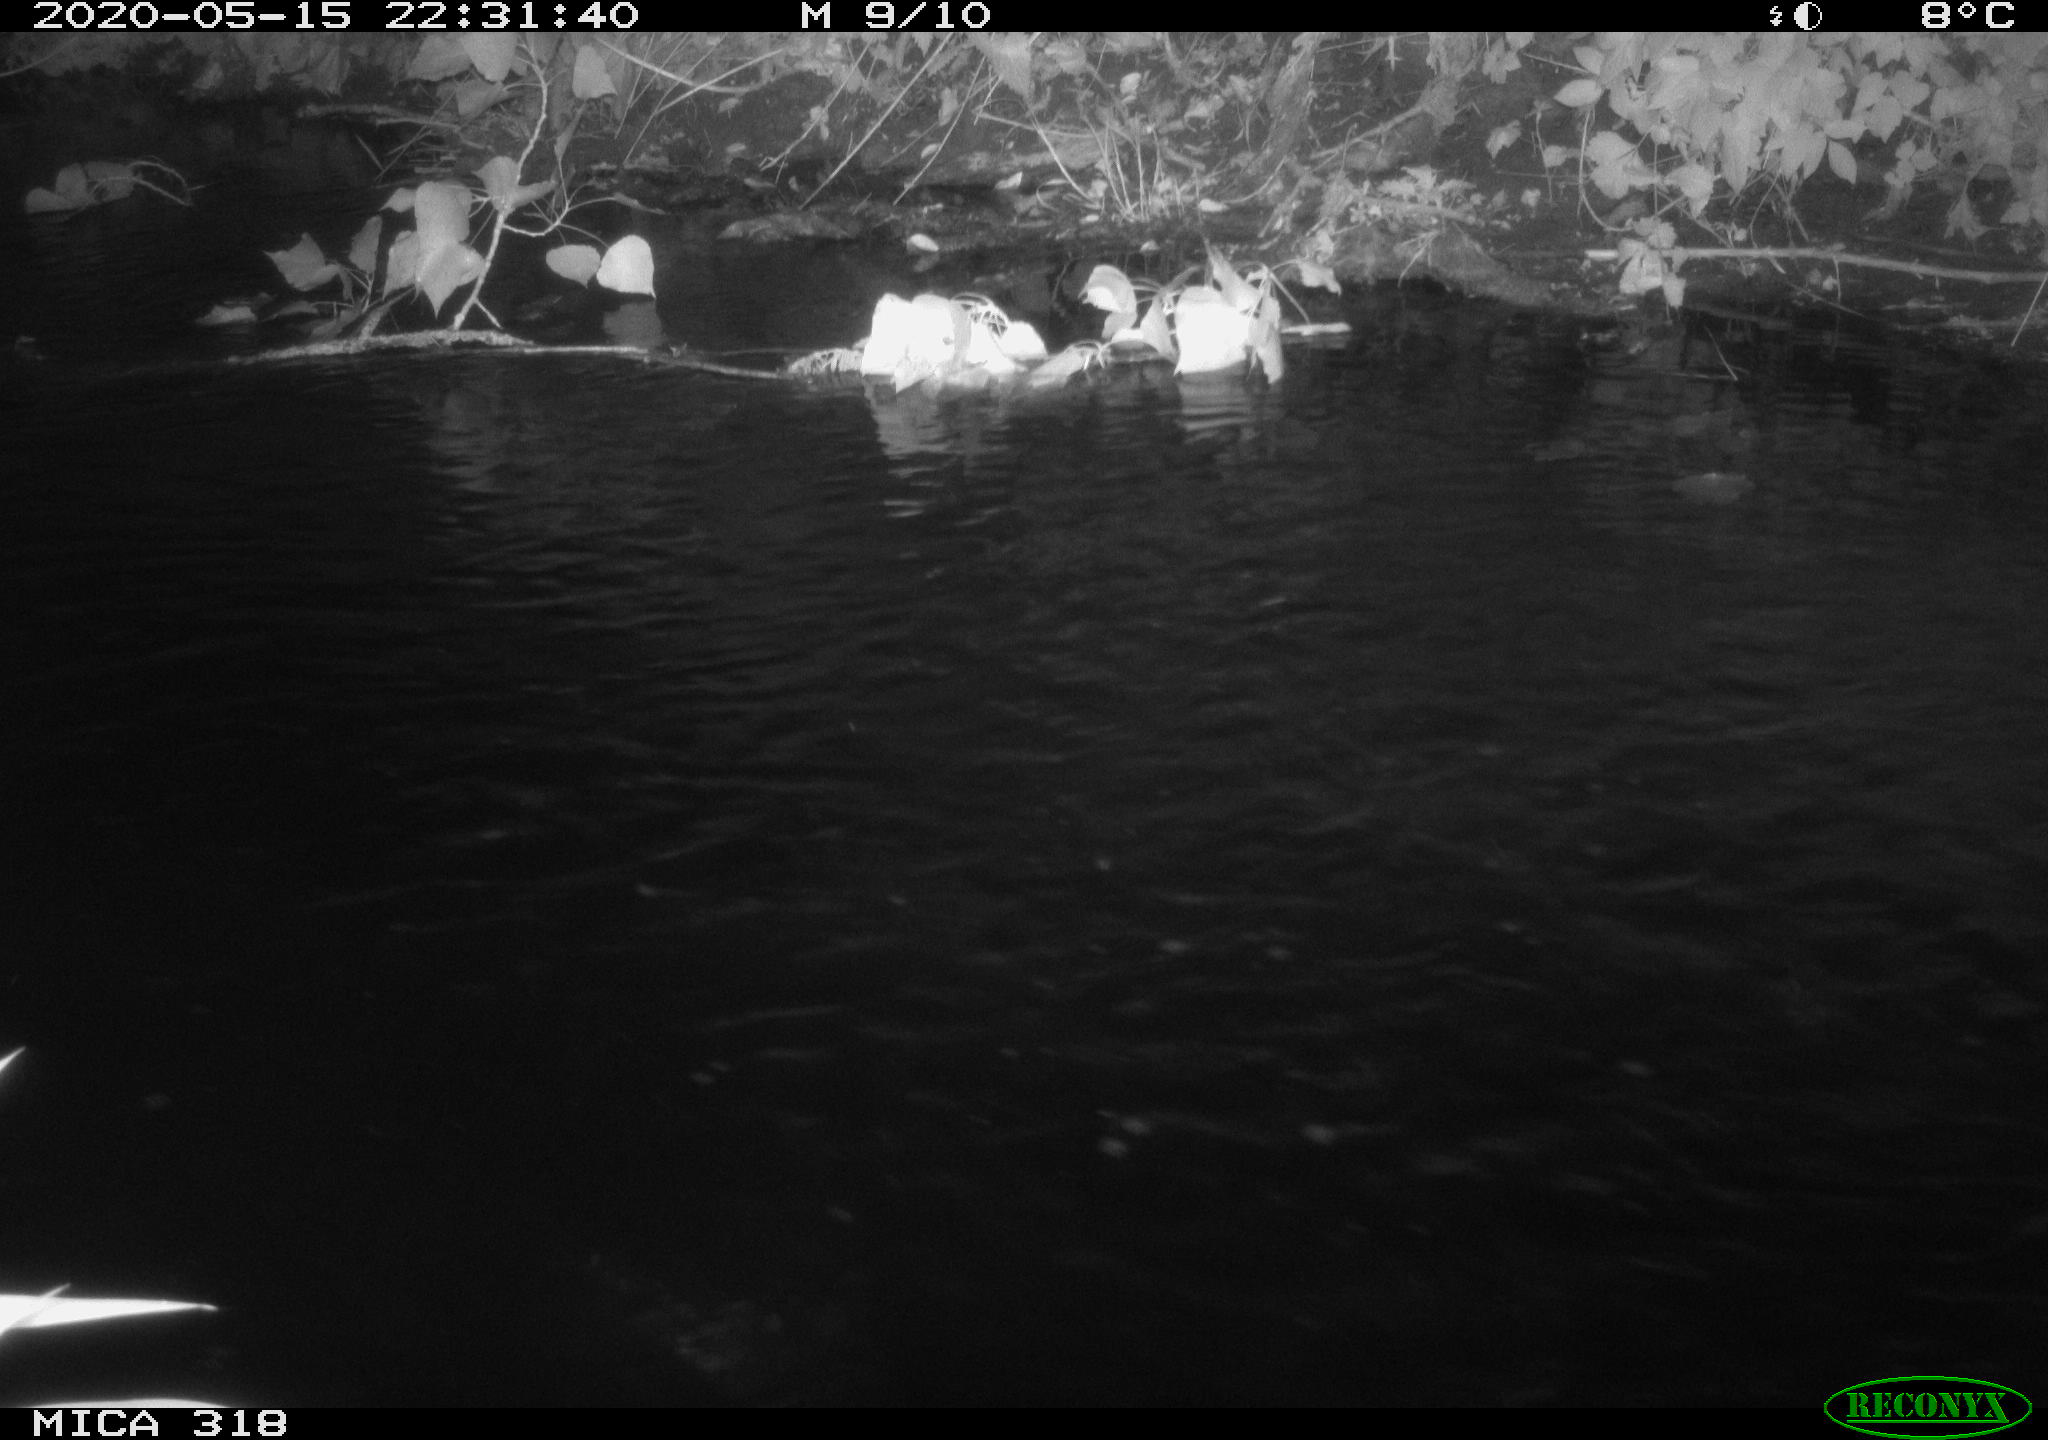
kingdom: Animalia
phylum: Chordata
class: Aves
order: Pelecaniformes
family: Ardeidae
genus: Ardea
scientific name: Ardea cinerea
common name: Grey heron
